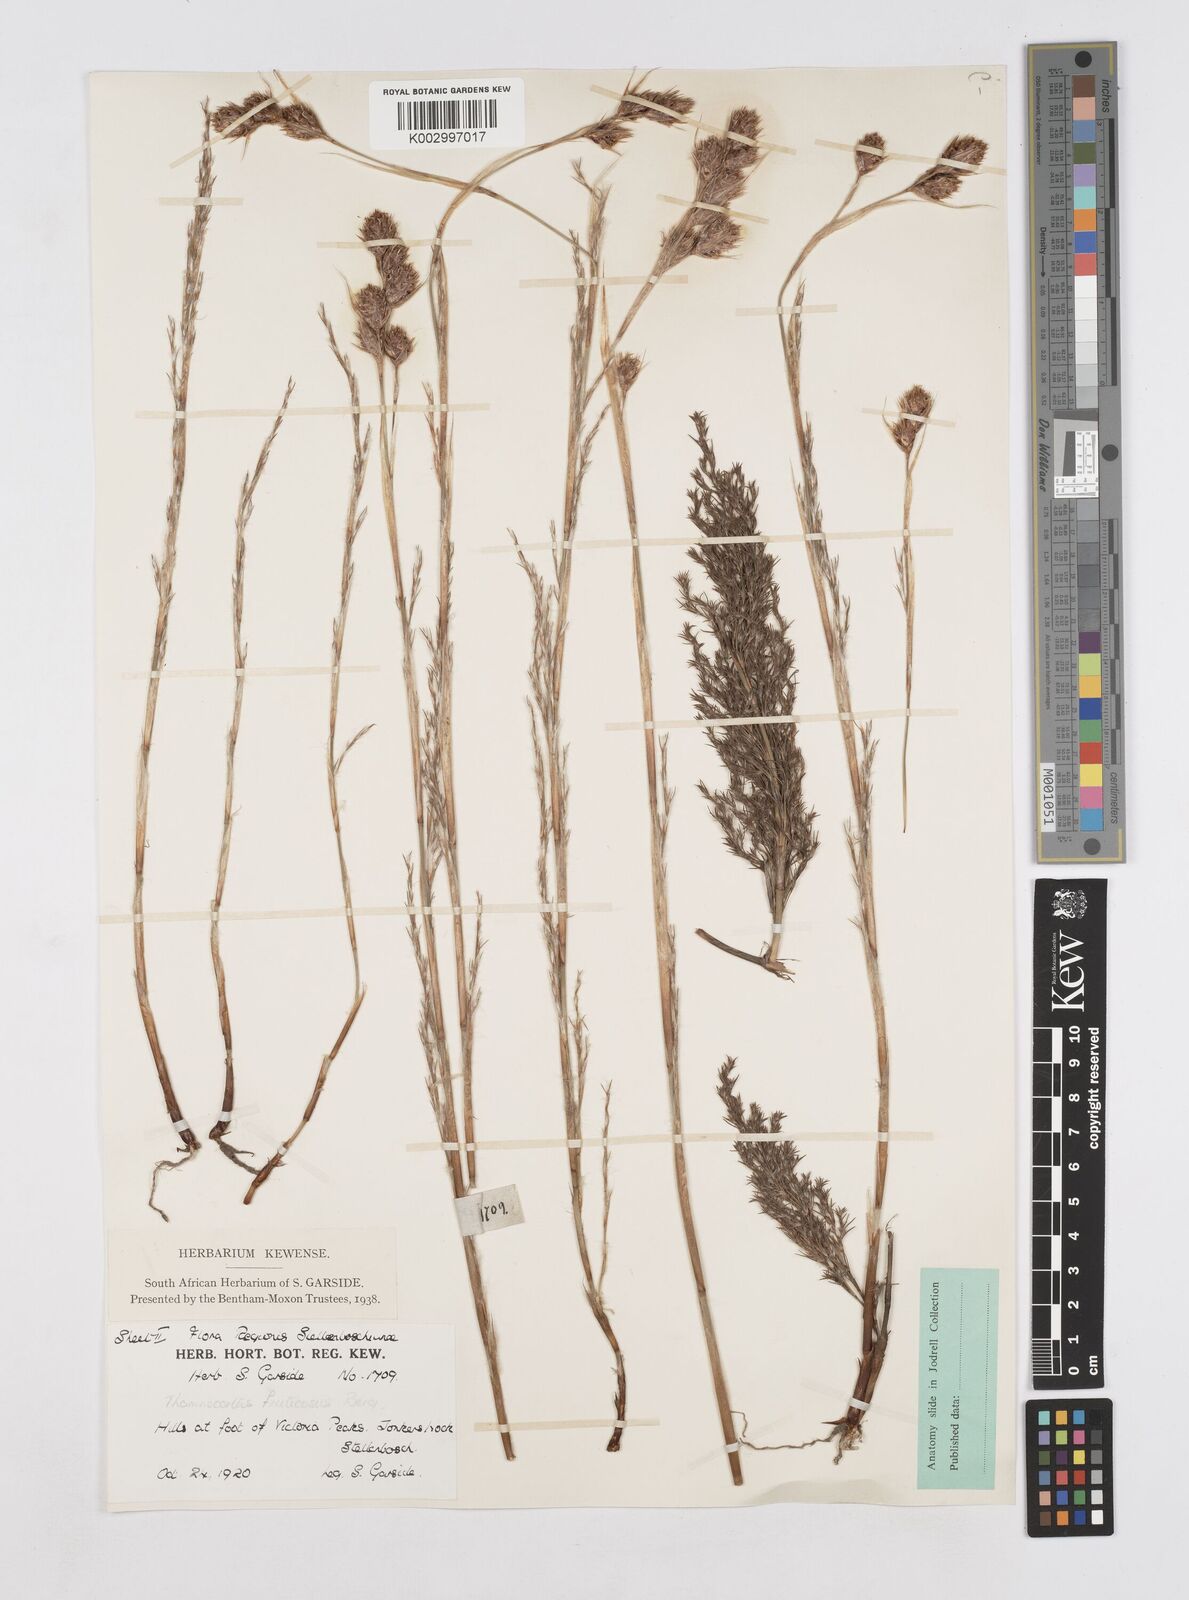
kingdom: Plantae
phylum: Tracheophyta
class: Liliopsida
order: Poales
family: Restionaceae
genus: Thamnochortus
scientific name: Thamnochortus fruticosus
